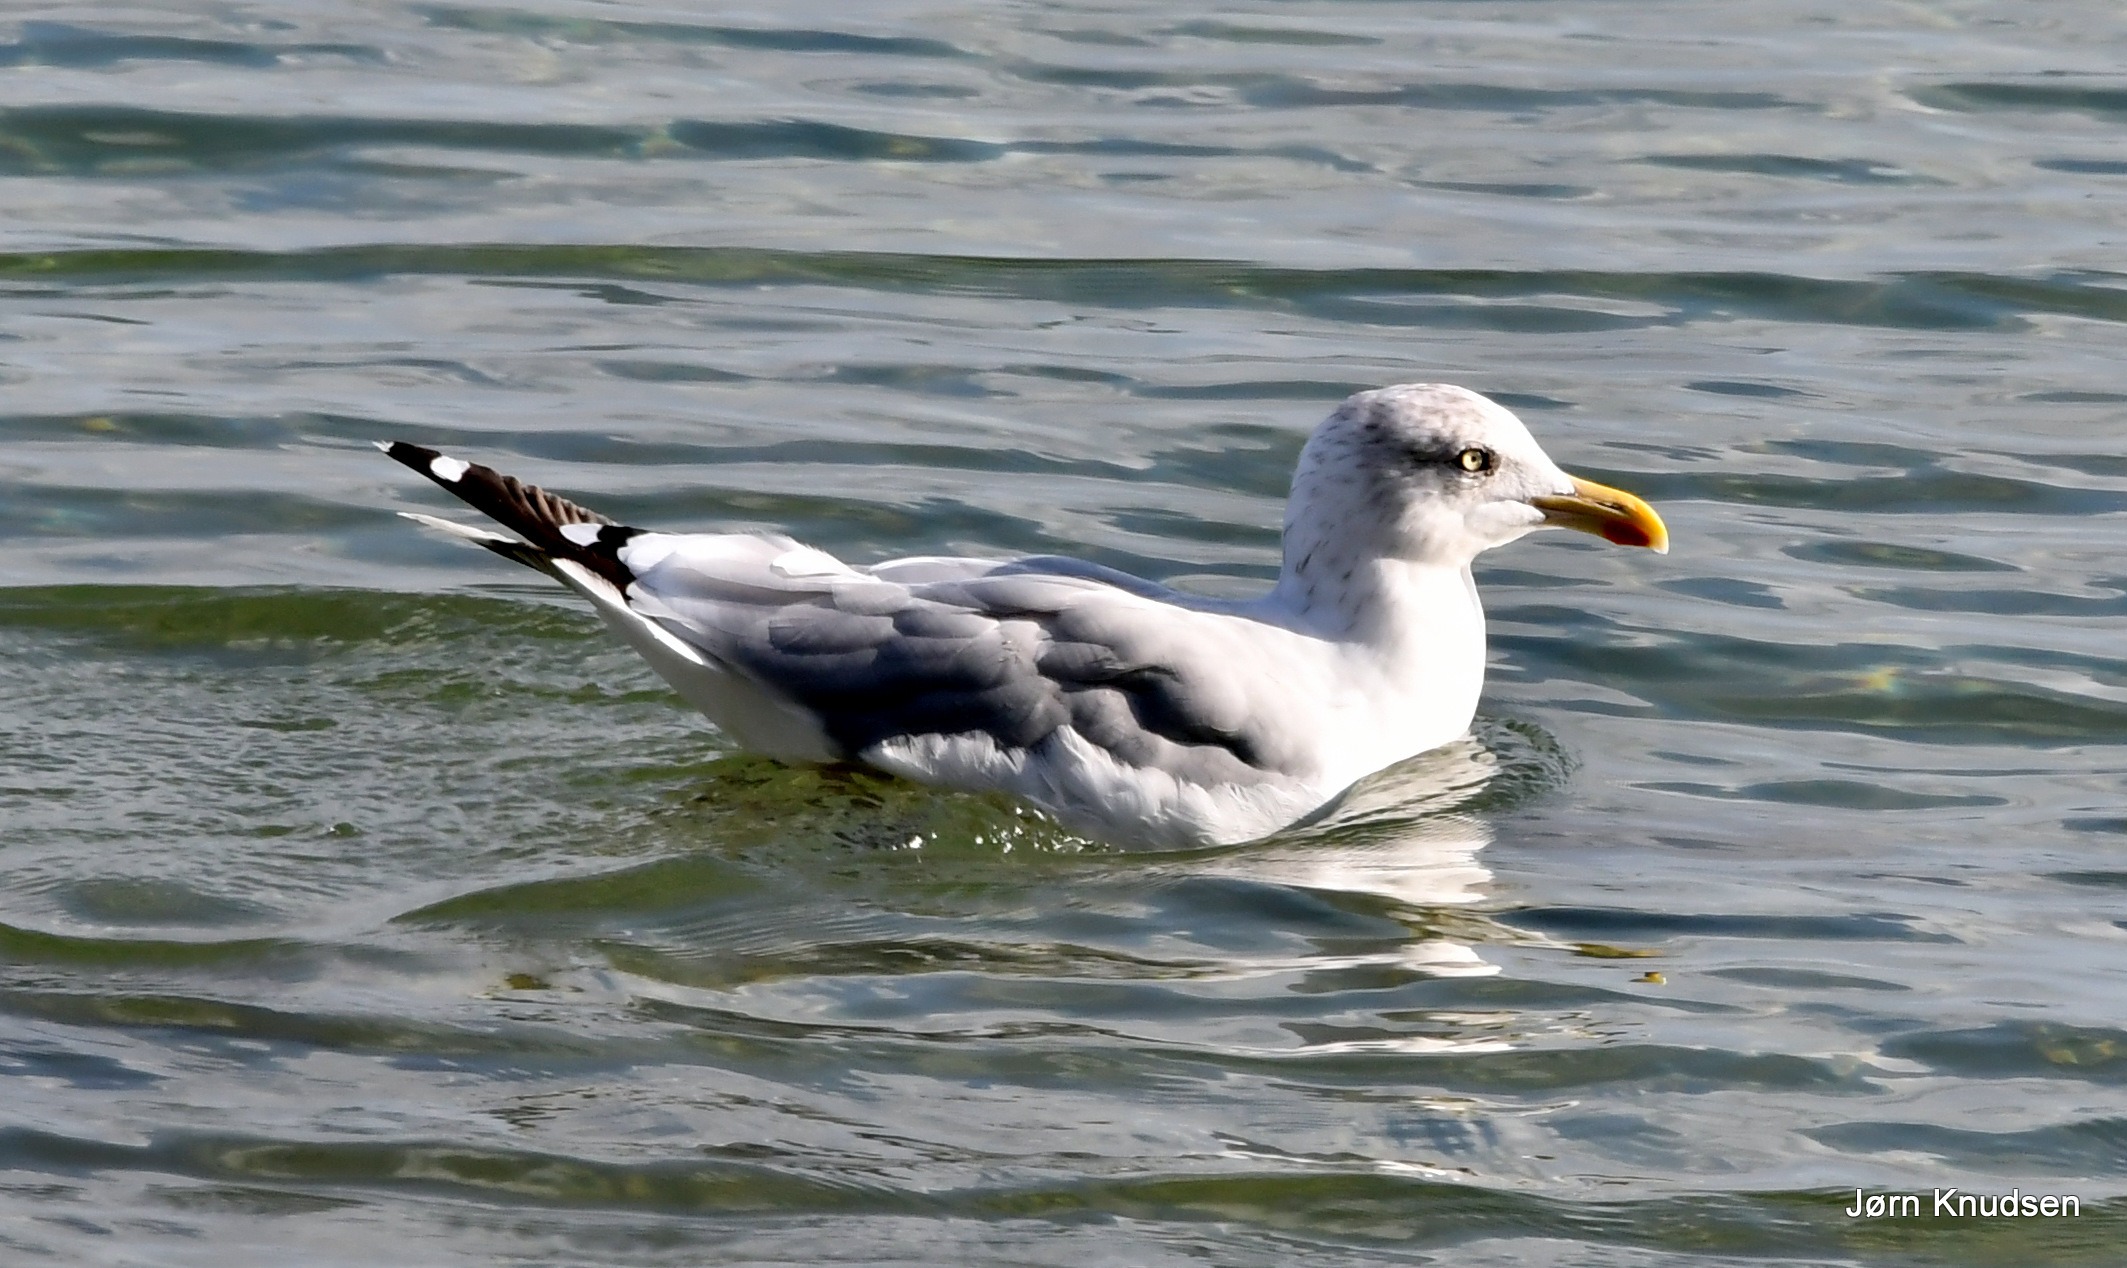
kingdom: Animalia
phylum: Chordata
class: Aves
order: Charadriiformes
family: Laridae
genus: Larus
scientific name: Larus argentatus
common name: Sølvmåge
